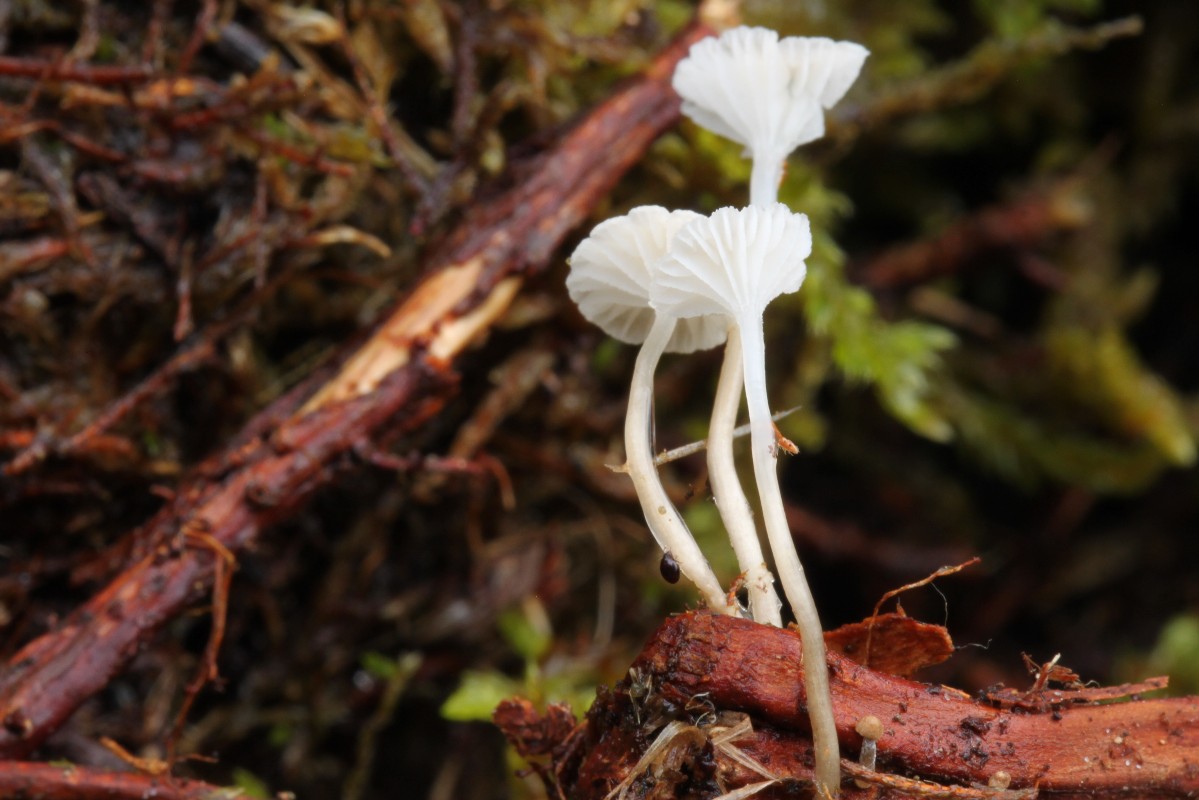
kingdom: Fungi
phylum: Basidiomycota
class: Agaricomycetes
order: Agaricales
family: Mycenaceae
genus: Roridomyces
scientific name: Roridomyces roridus
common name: slimfod
